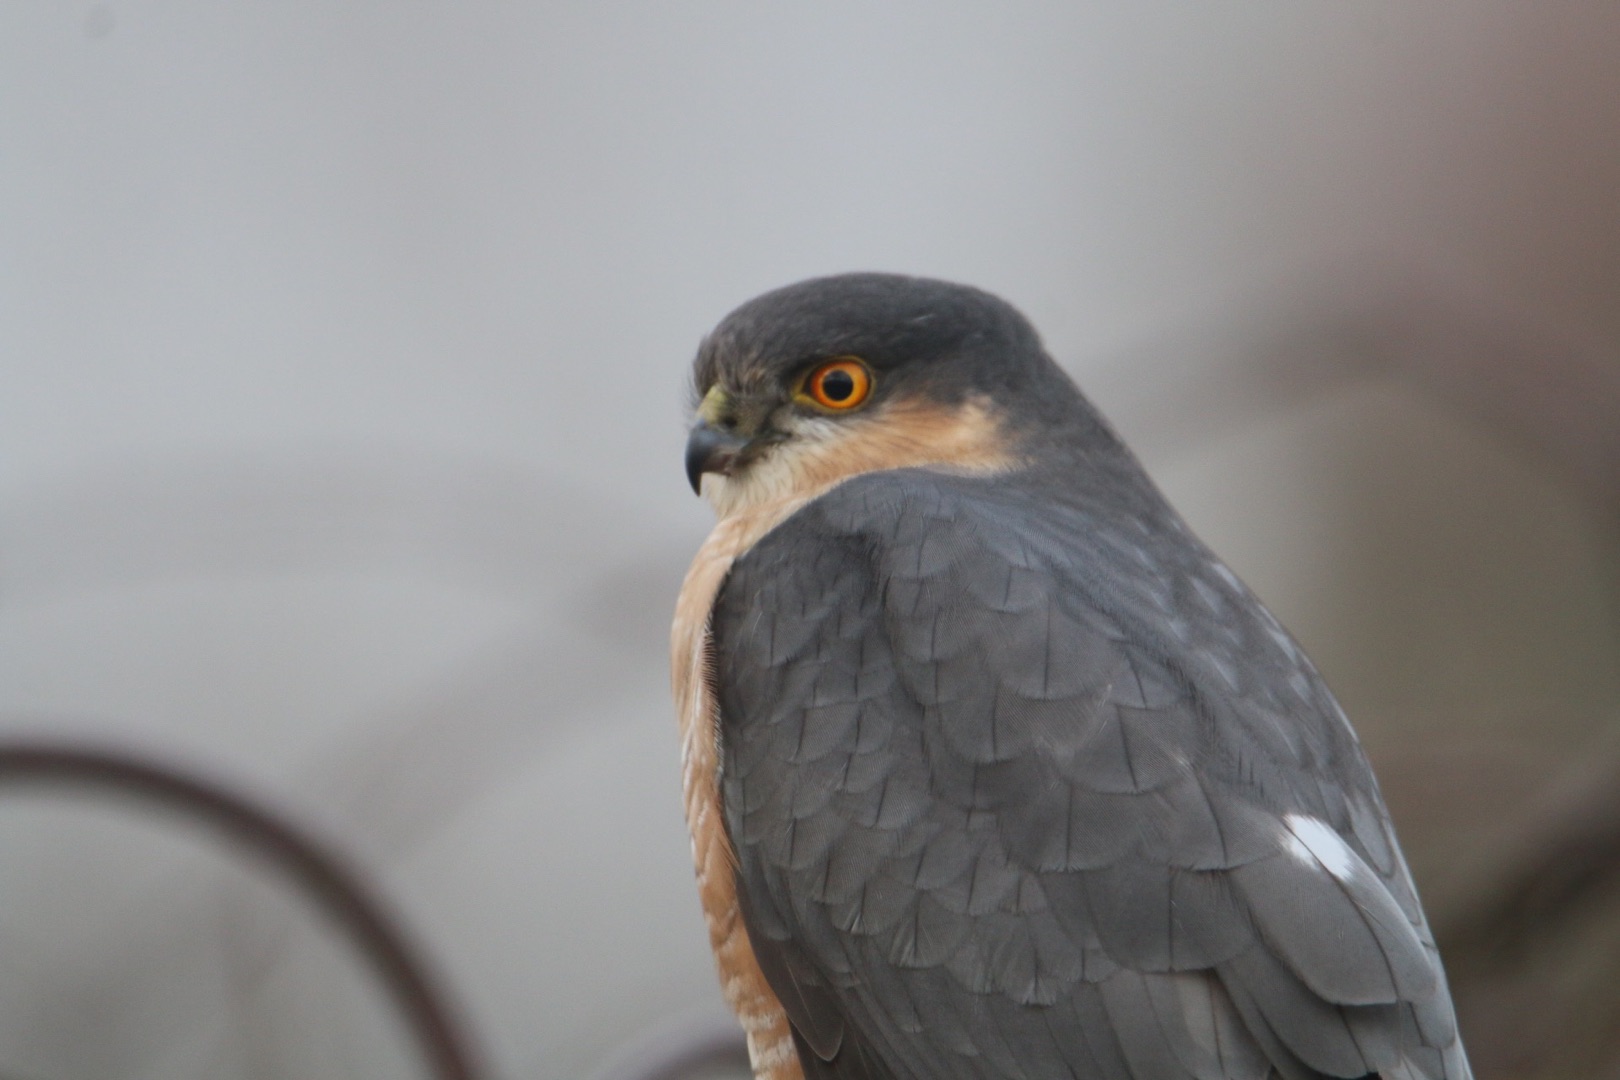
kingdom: Animalia
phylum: Chordata
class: Aves
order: Accipitriformes
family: Accipitridae
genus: Accipiter
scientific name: Accipiter nisus
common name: Spurvehøg
